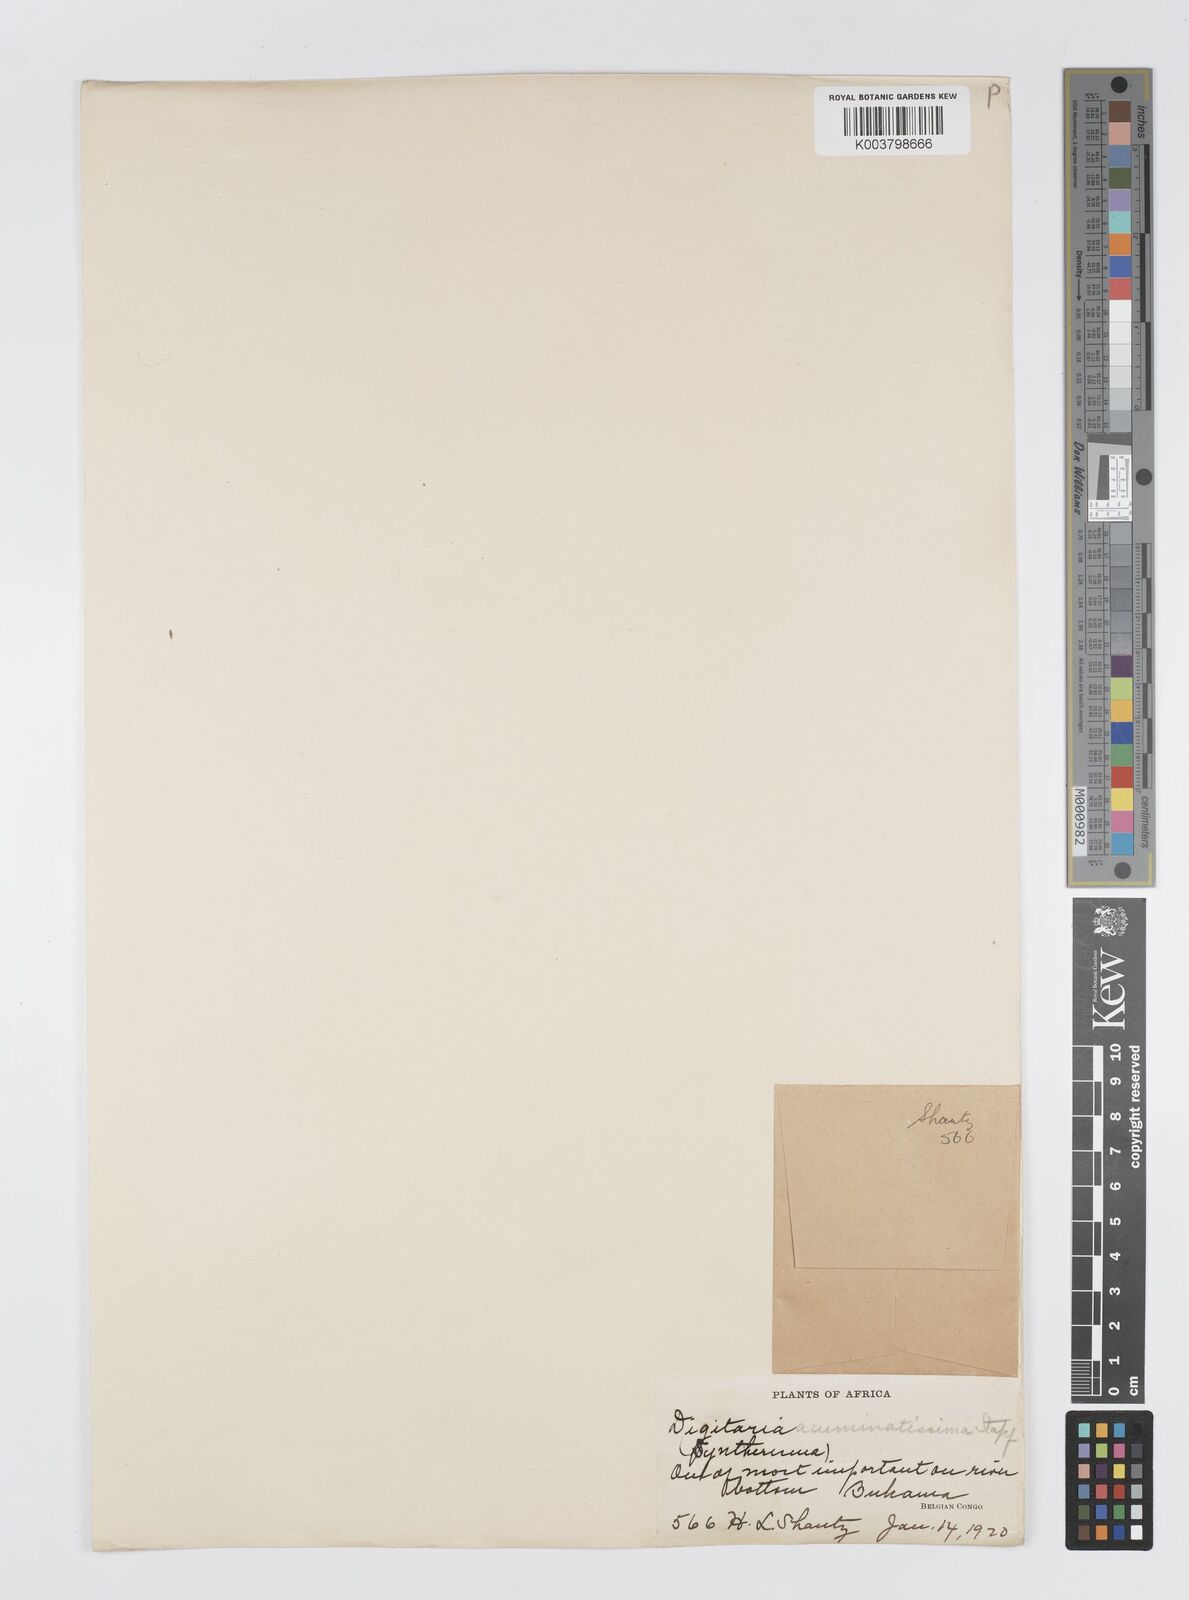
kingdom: Plantae
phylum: Tracheophyta
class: Liliopsida
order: Poales
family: Poaceae
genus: Digitaria
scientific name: Digitaria acuminatissima
